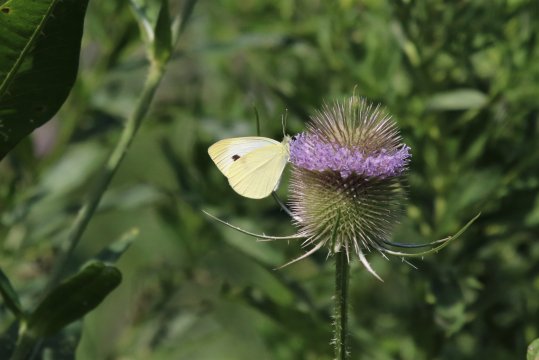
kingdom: Animalia
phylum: Arthropoda
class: Insecta
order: Lepidoptera
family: Pieridae
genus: Pieris
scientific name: Pieris rapae
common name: Cabbage White
